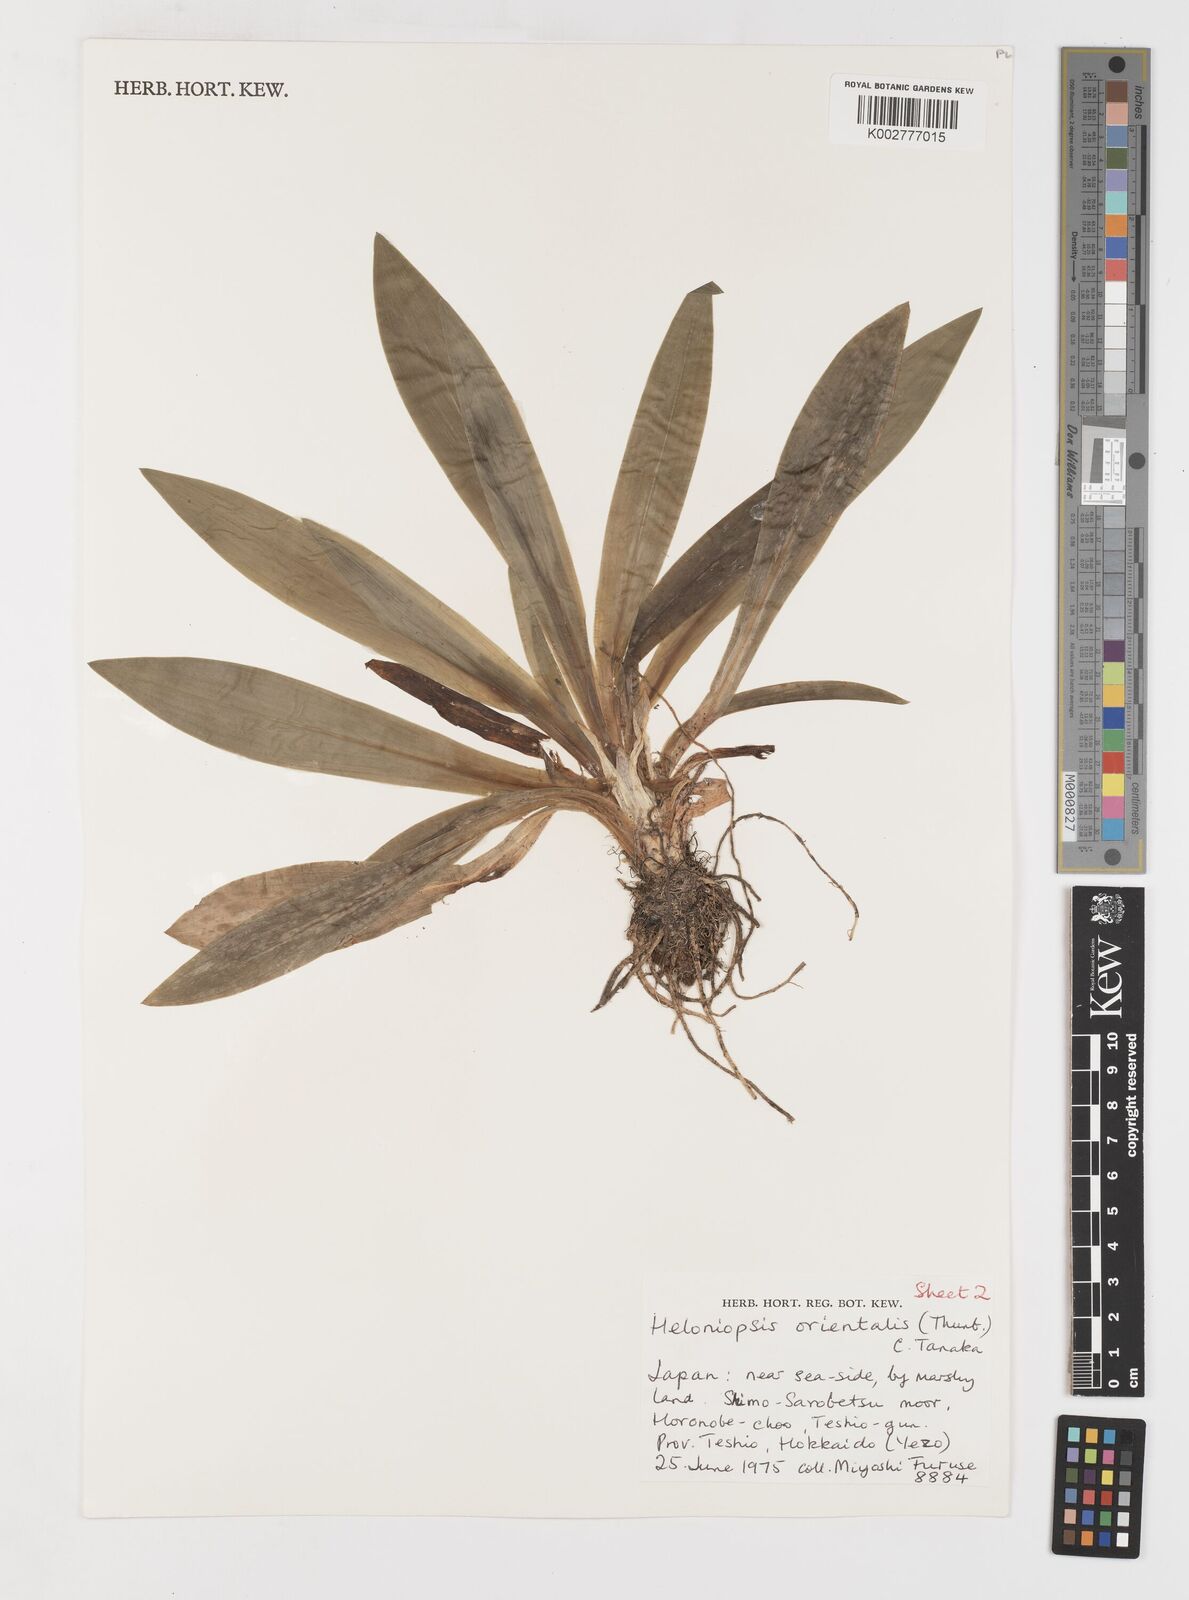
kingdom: Plantae
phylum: Tracheophyta
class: Liliopsida
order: Liliales
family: Melanthiaceae
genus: Helonias
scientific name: Helonias orientalis
